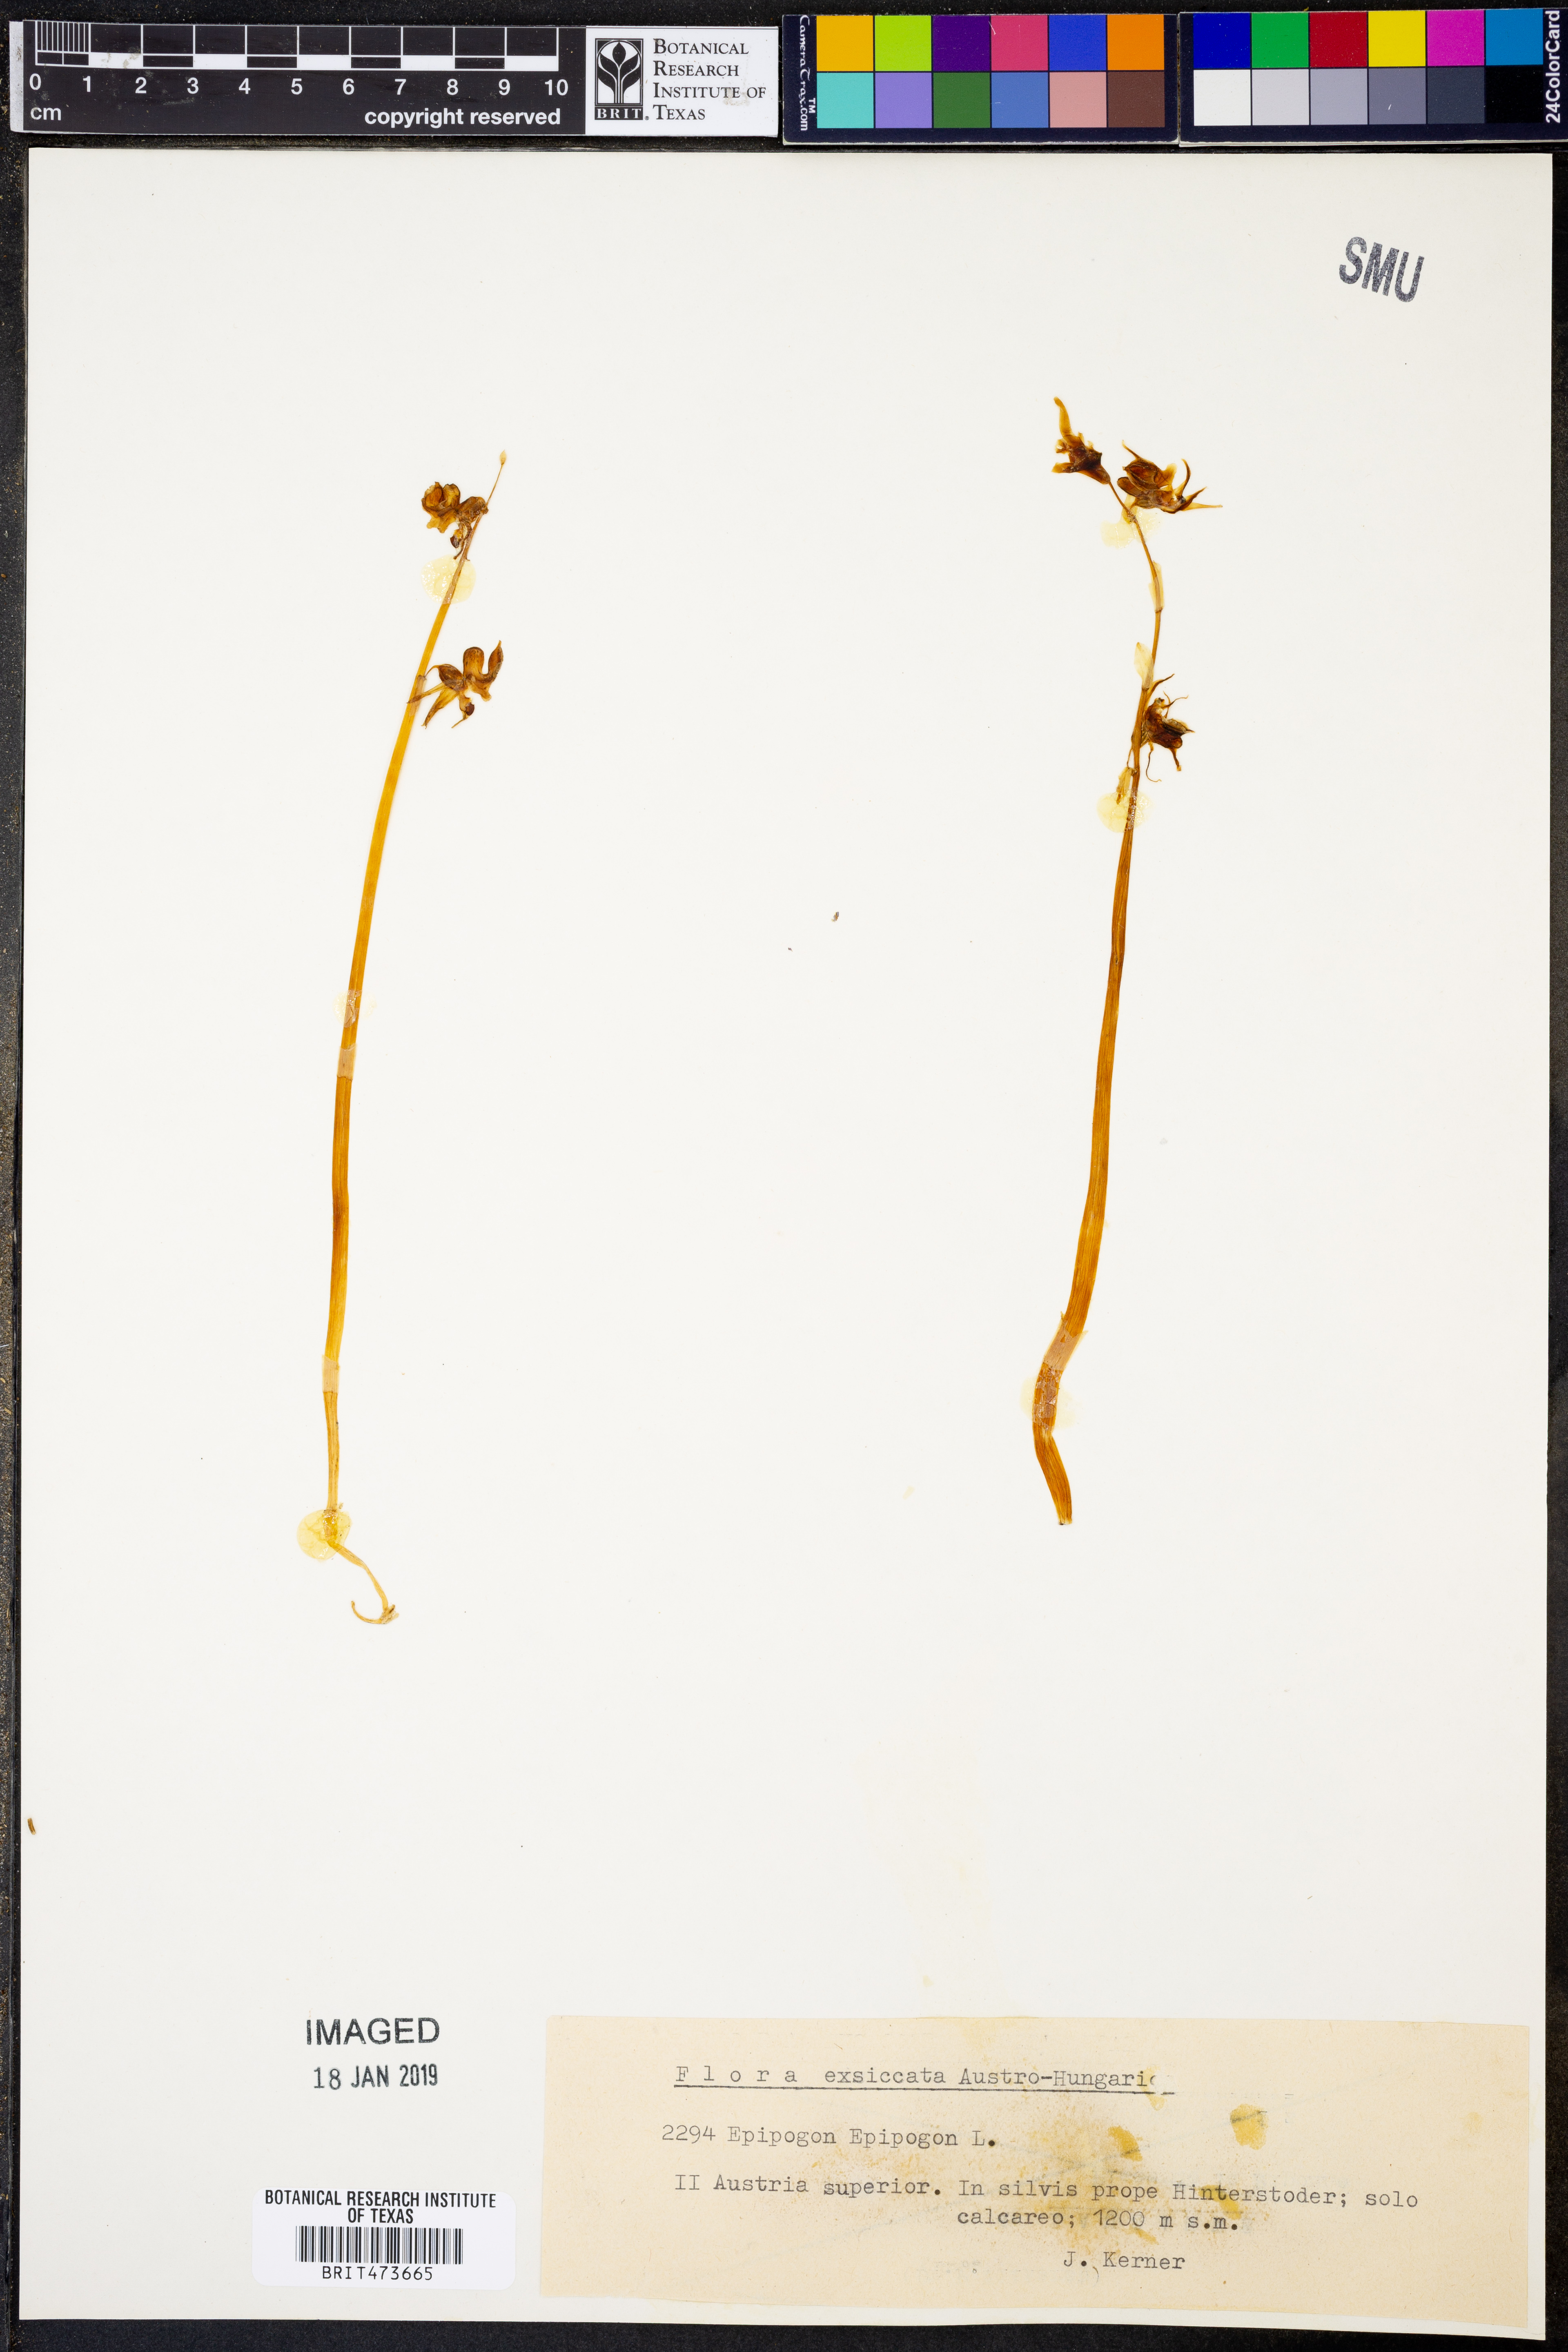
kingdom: Plantae
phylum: Tracheophyta
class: Liliopsida
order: Asparagales
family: Orchidaceae
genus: Epipogium
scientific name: Epipogium Epipogon epipogon
